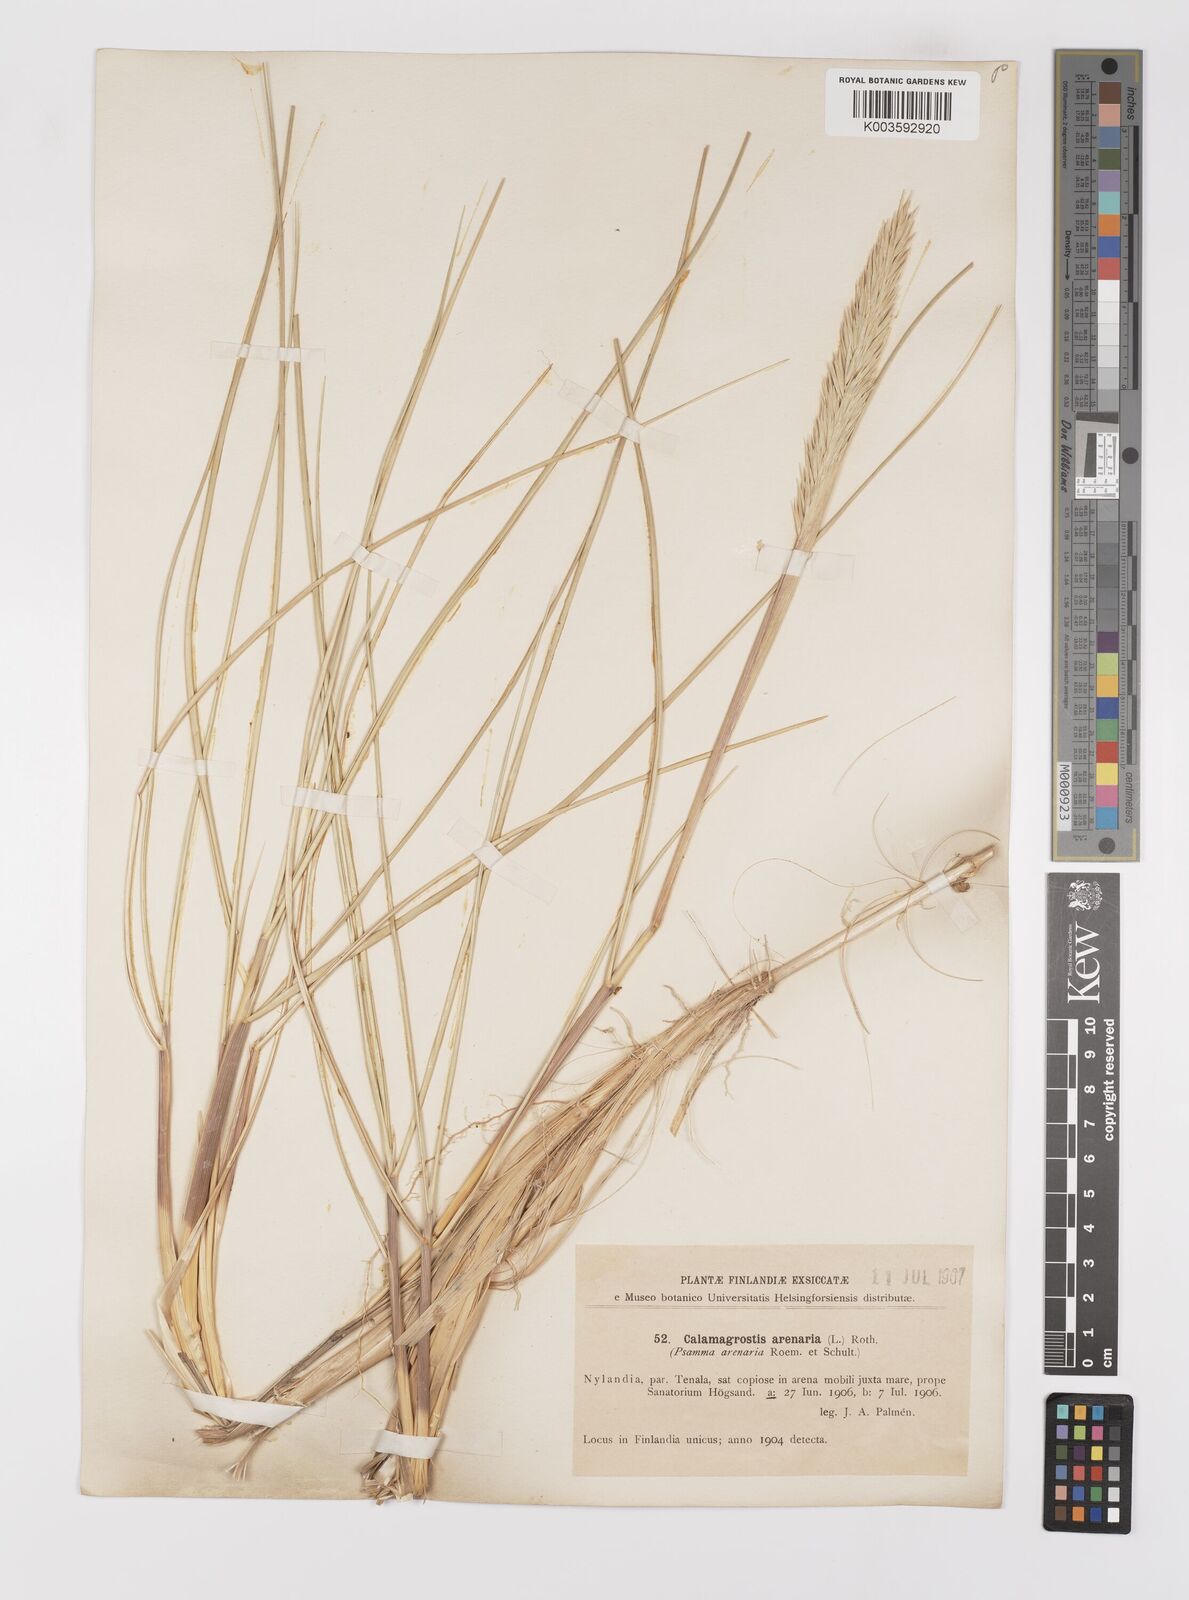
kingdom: Plantae
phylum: Tracheophyta
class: Liliopsida
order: Poales
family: Poaceae
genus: Calamagrostis
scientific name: Calamagrostis arenaria
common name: European beachgrass
